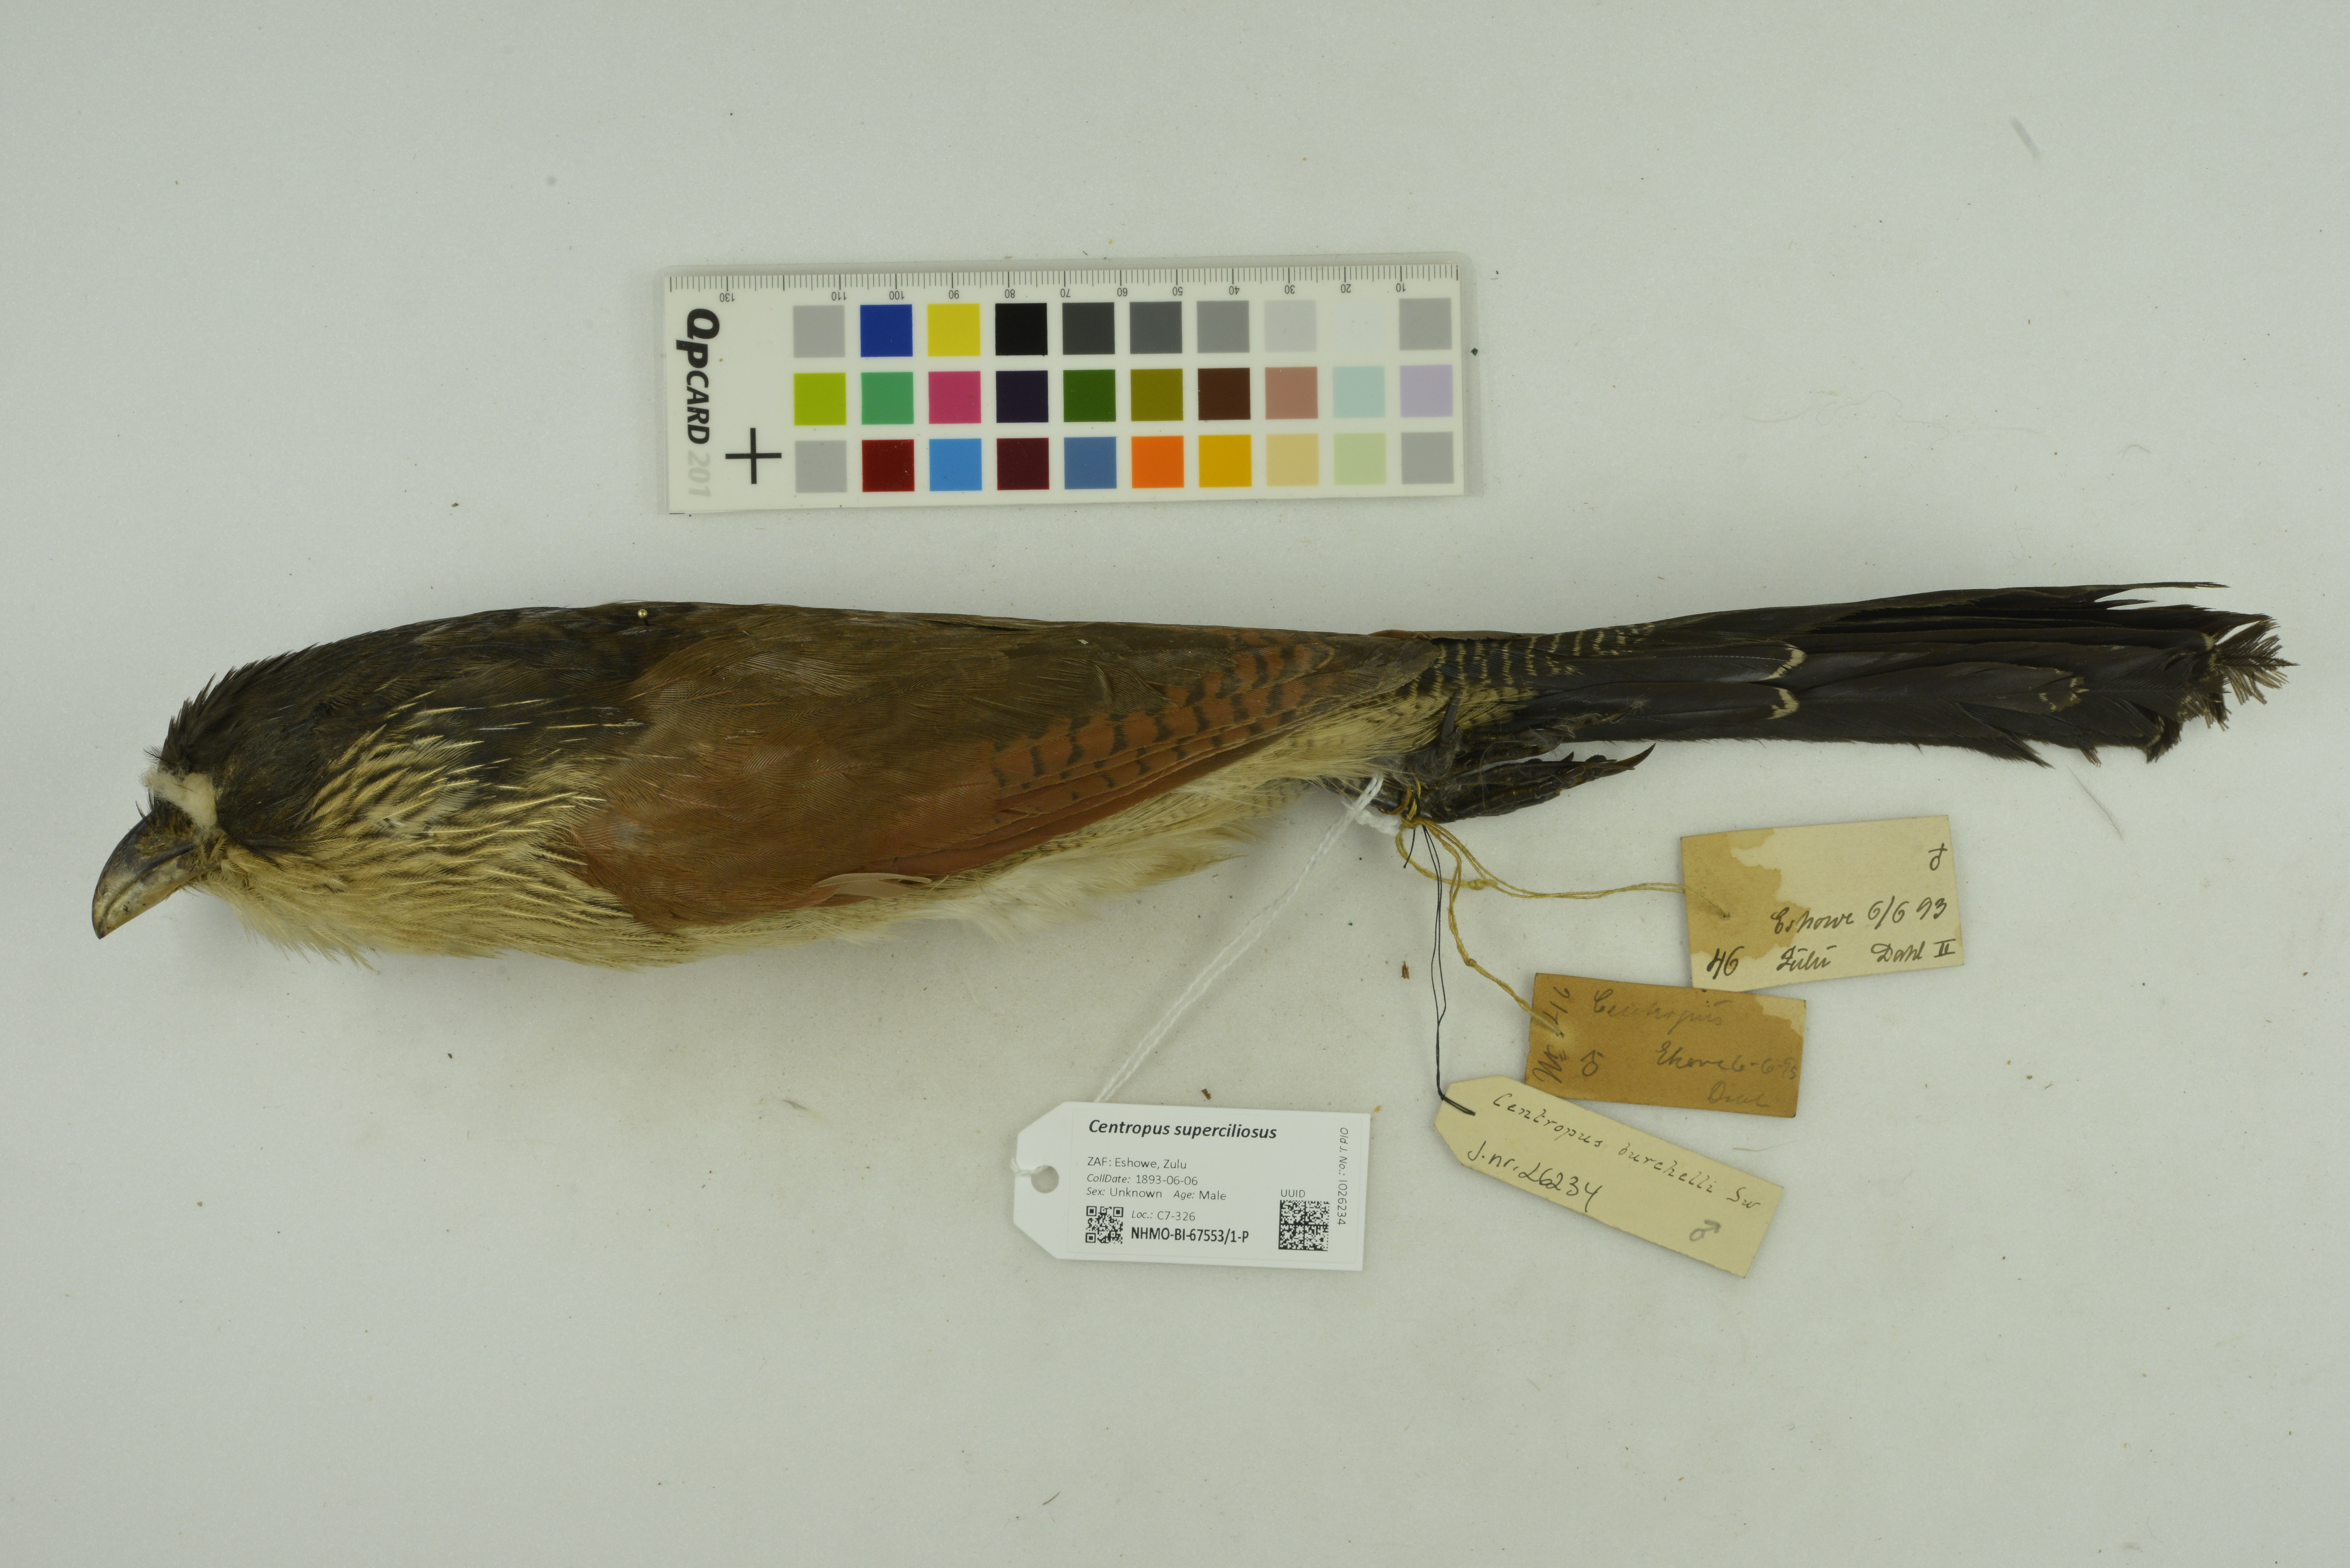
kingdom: Animalia
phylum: Chordata
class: Aves
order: Cuculiformes
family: Cuculidae
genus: Centropus
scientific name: Centropus superciliosus
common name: White-browed coucal
